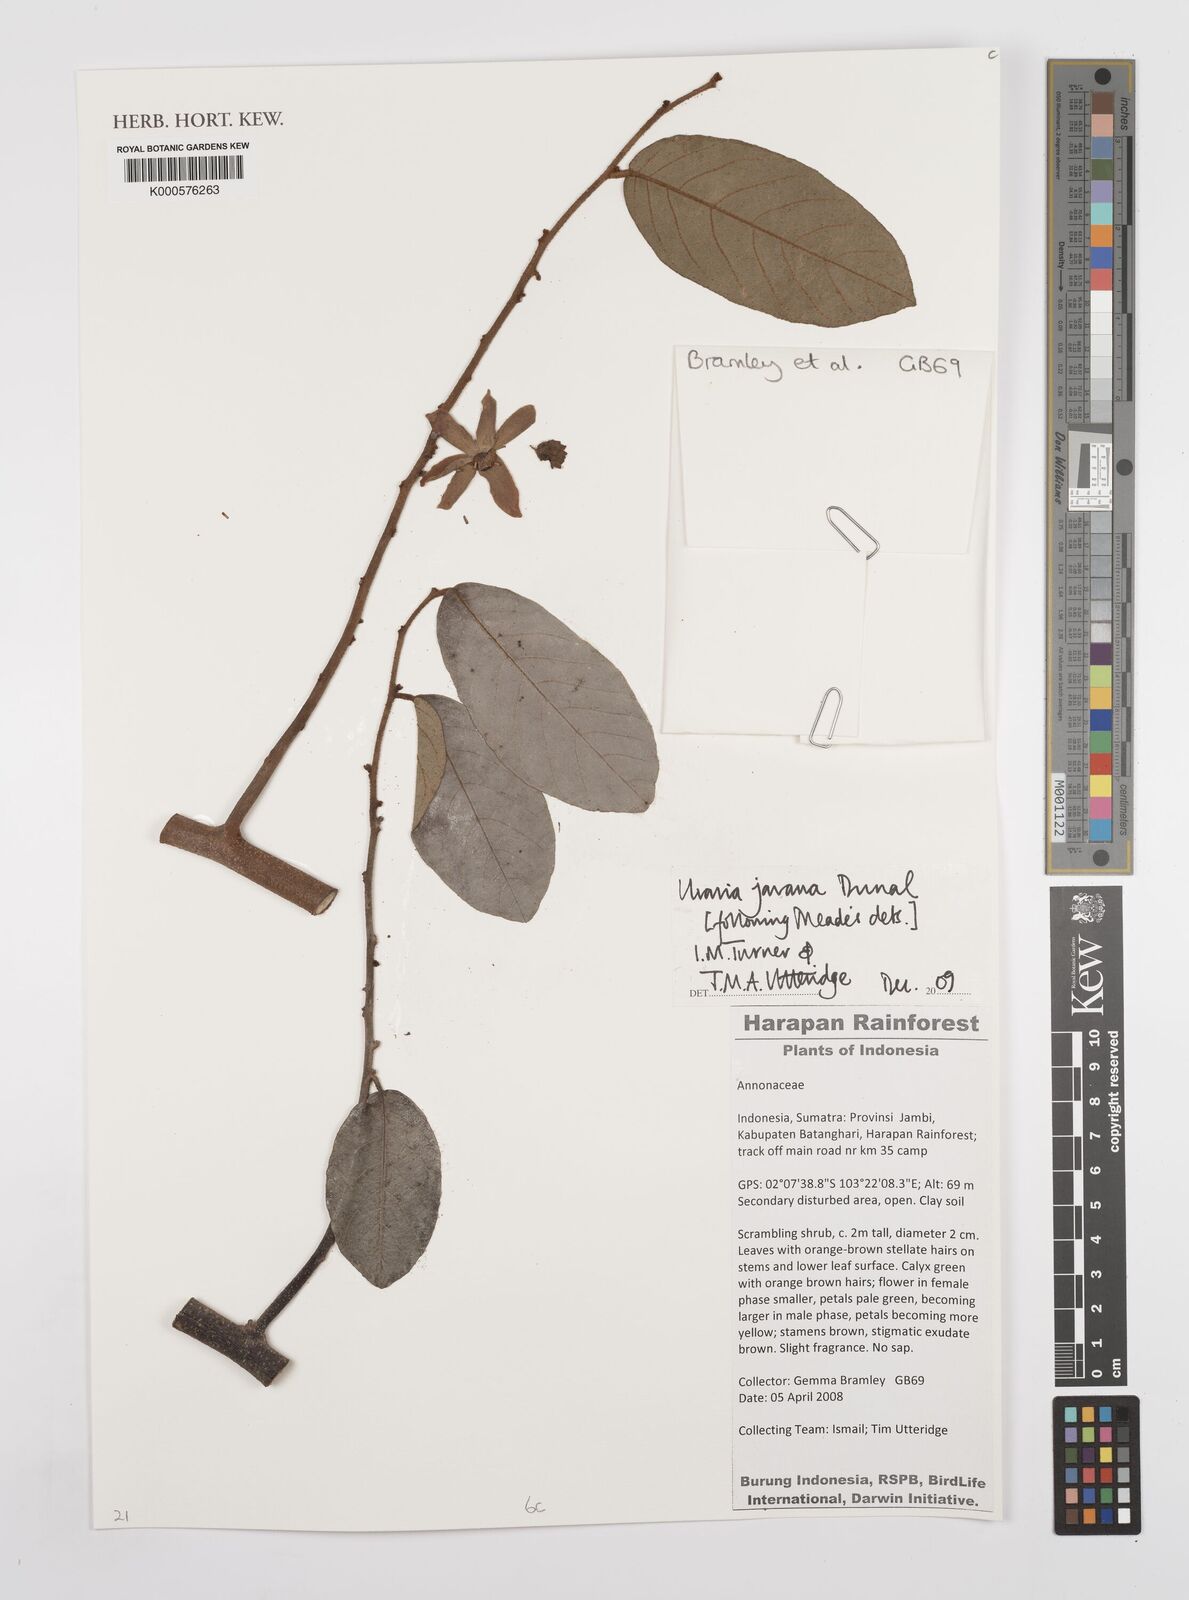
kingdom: Plantae
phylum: Tracheophyta
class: Magnoliopsida
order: Magnoliales
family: Annonaceae
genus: Uvaria
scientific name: Uvaria javana
